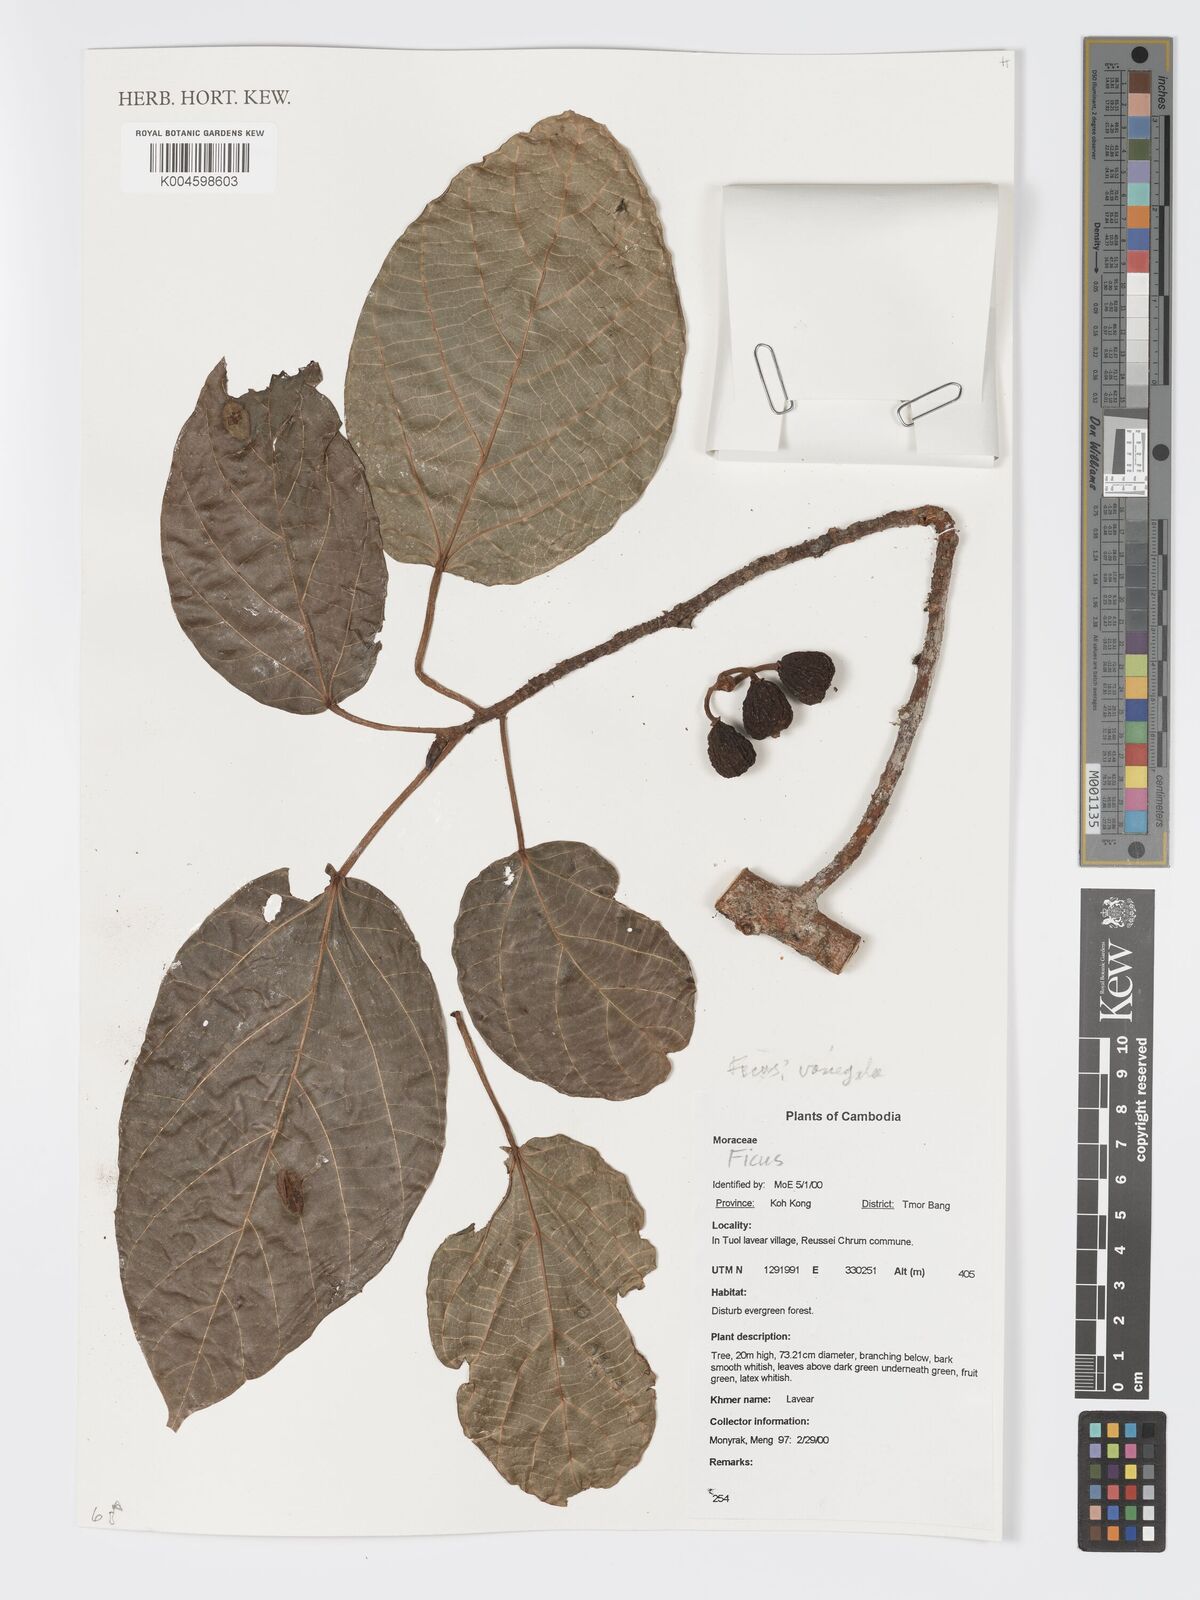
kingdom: Plantae
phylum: Tracheophyta
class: Magnoliopsida
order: Rosales
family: Moraceae
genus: Ficus
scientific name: Ficus variegata
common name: Variegated fig
